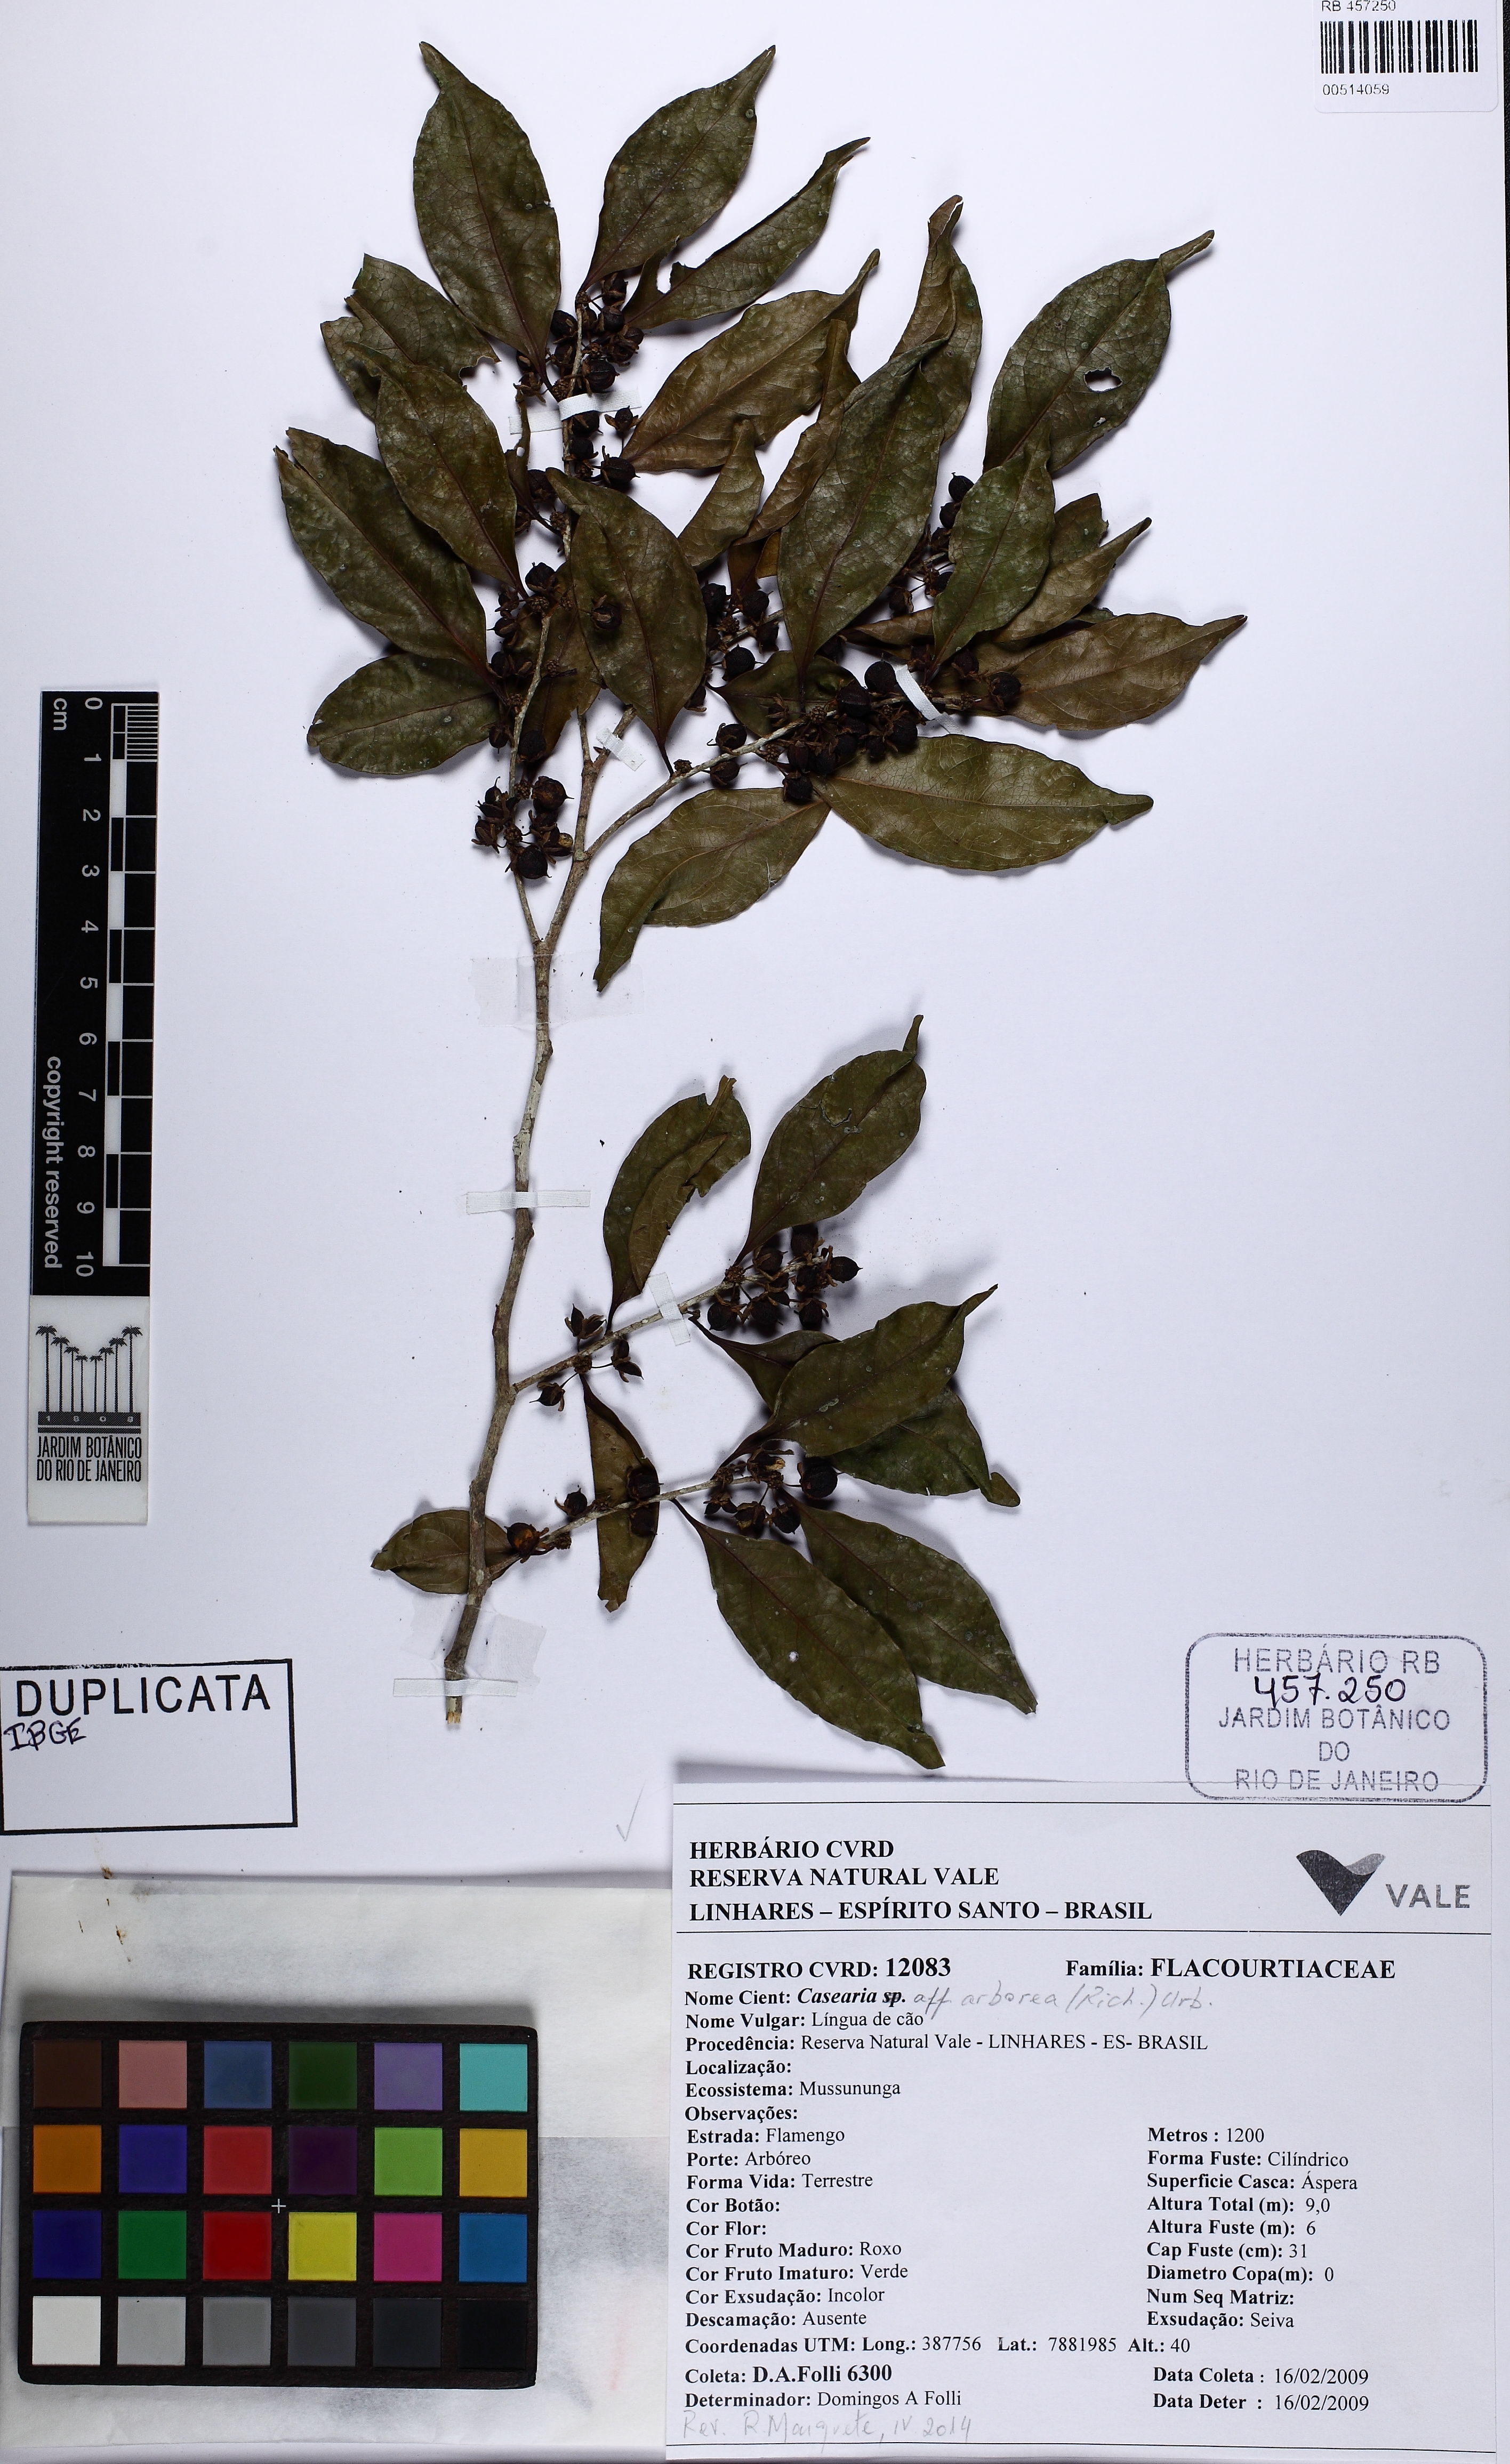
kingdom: Plantae
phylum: Tracheophyta
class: Magnoliopsida
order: Malpighiales
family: Salicaceae
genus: Casearia
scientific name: Casearia arborea
